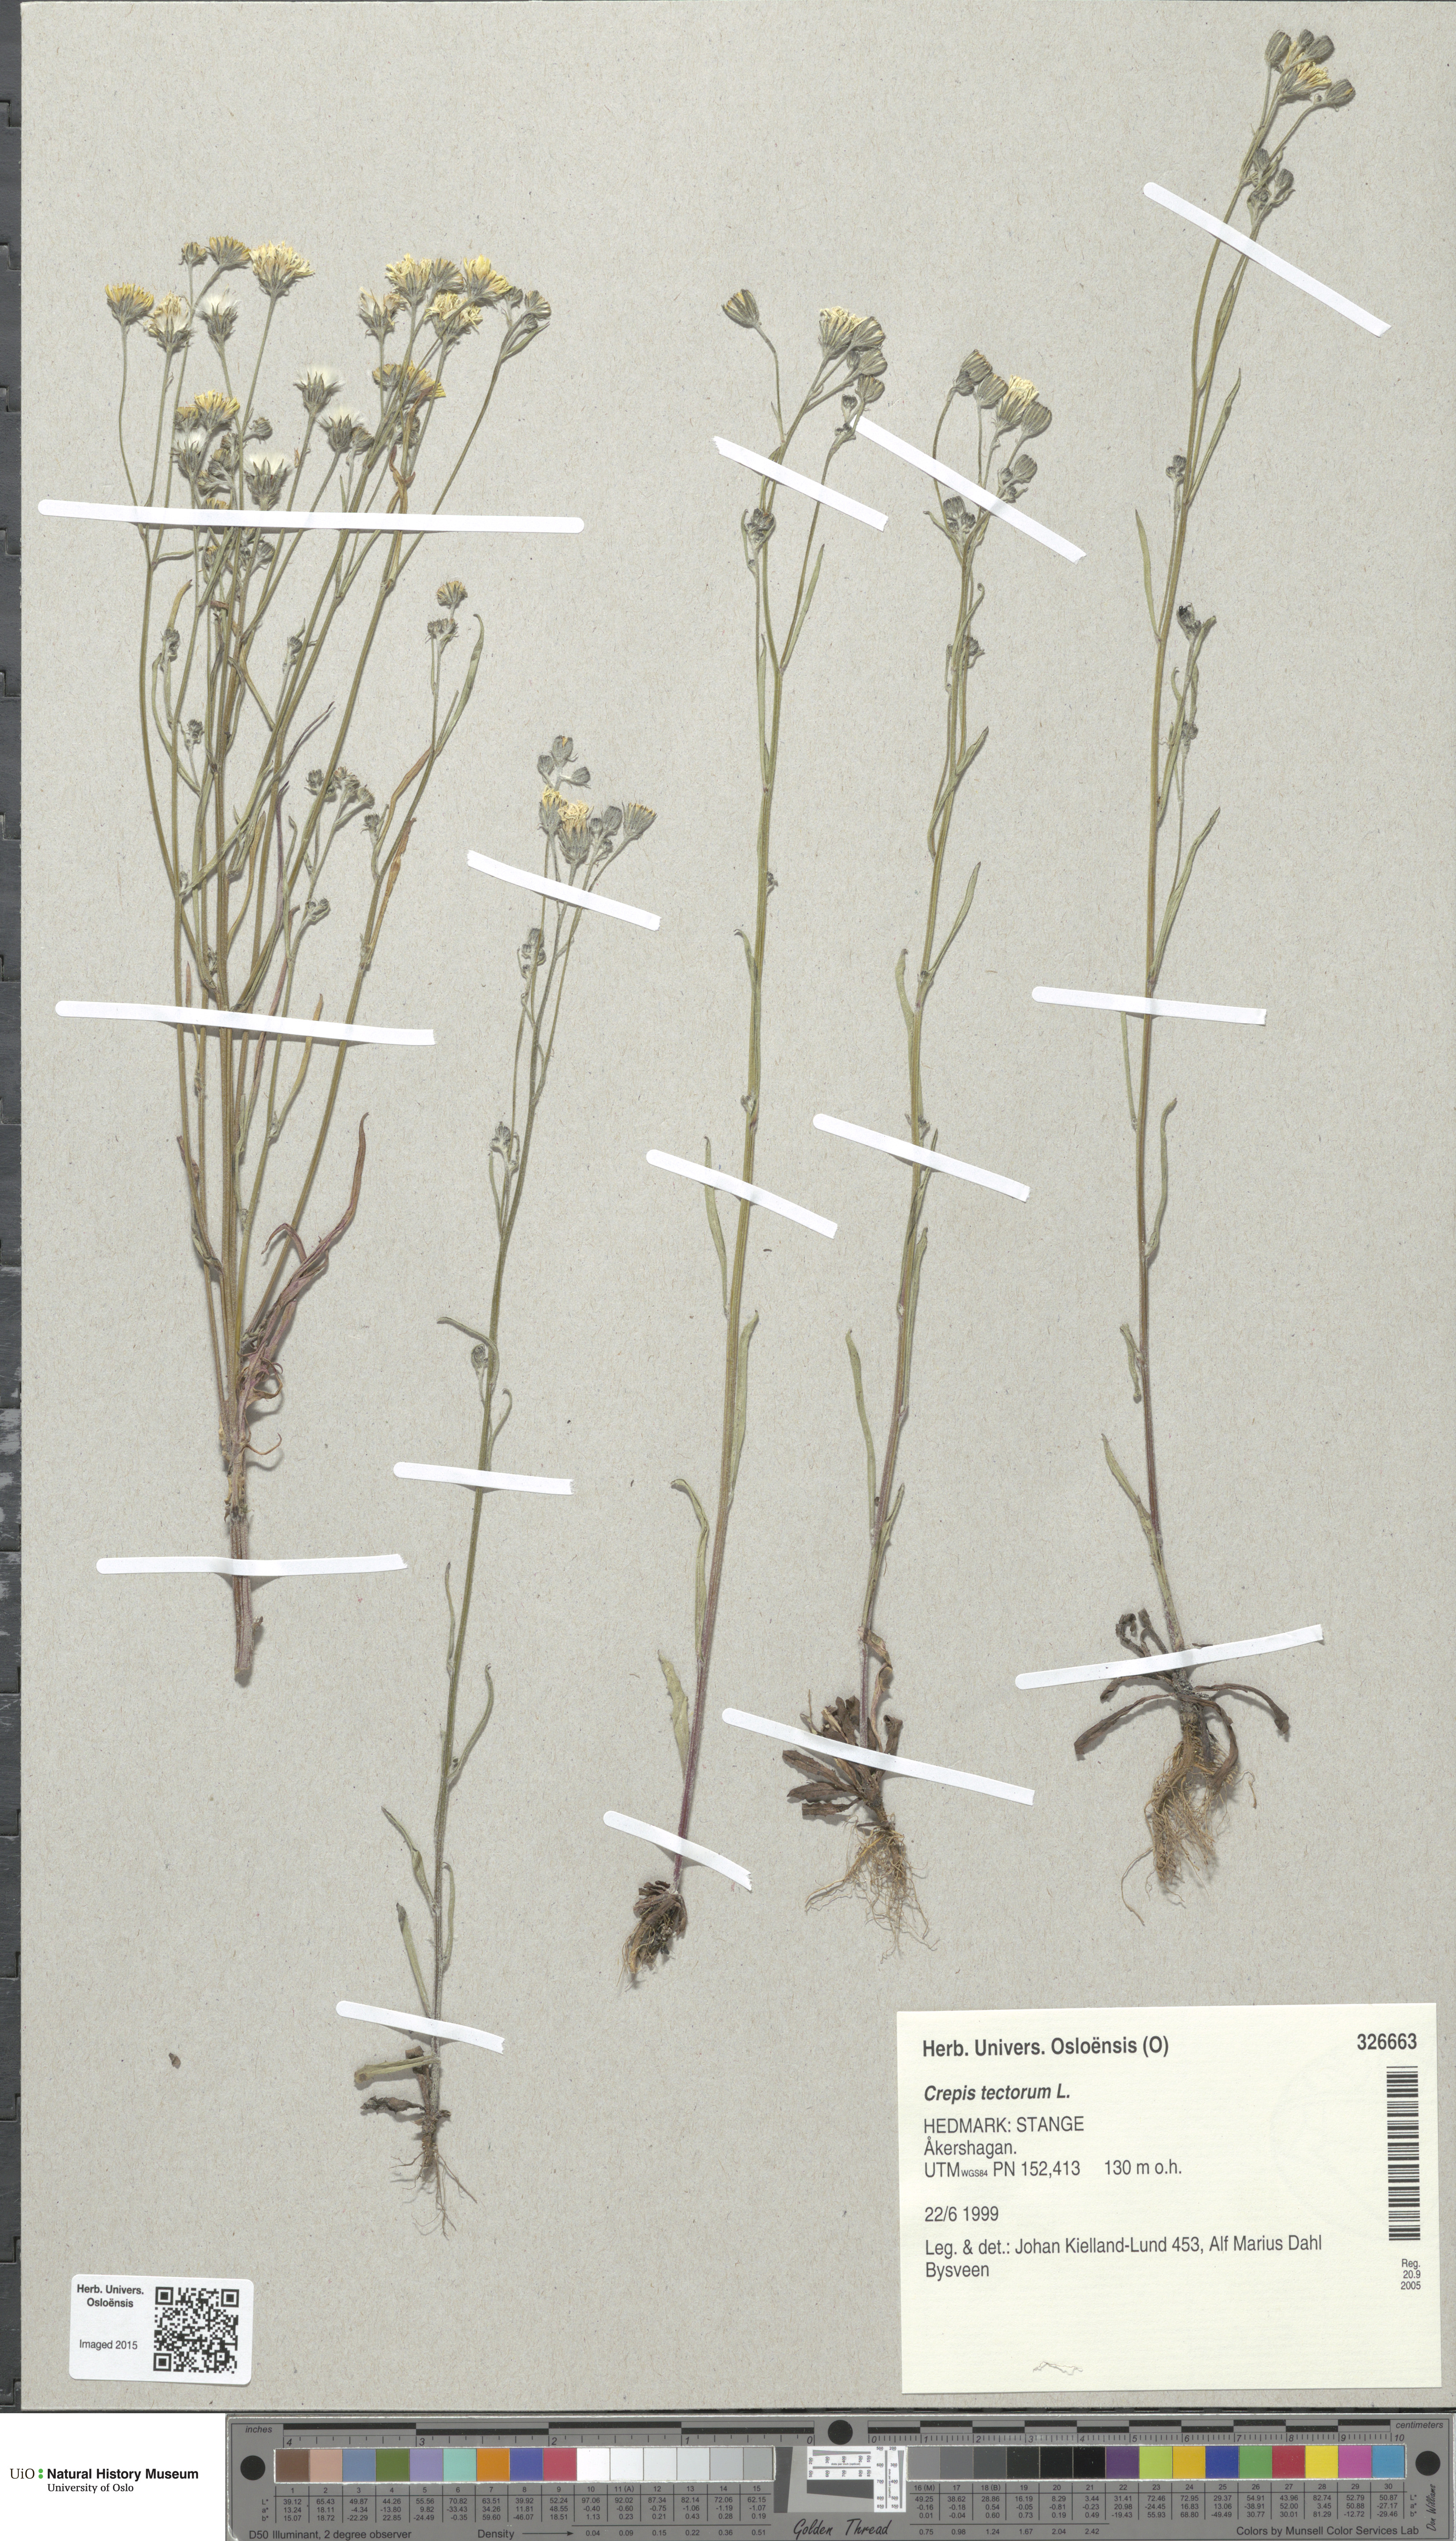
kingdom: Plantae
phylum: Tracheophyta
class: Magnoliopsida
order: Asterales
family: Asteraceae
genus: Crepis
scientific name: Crepis tectorum
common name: Narrow-leaved hawk's-beard
